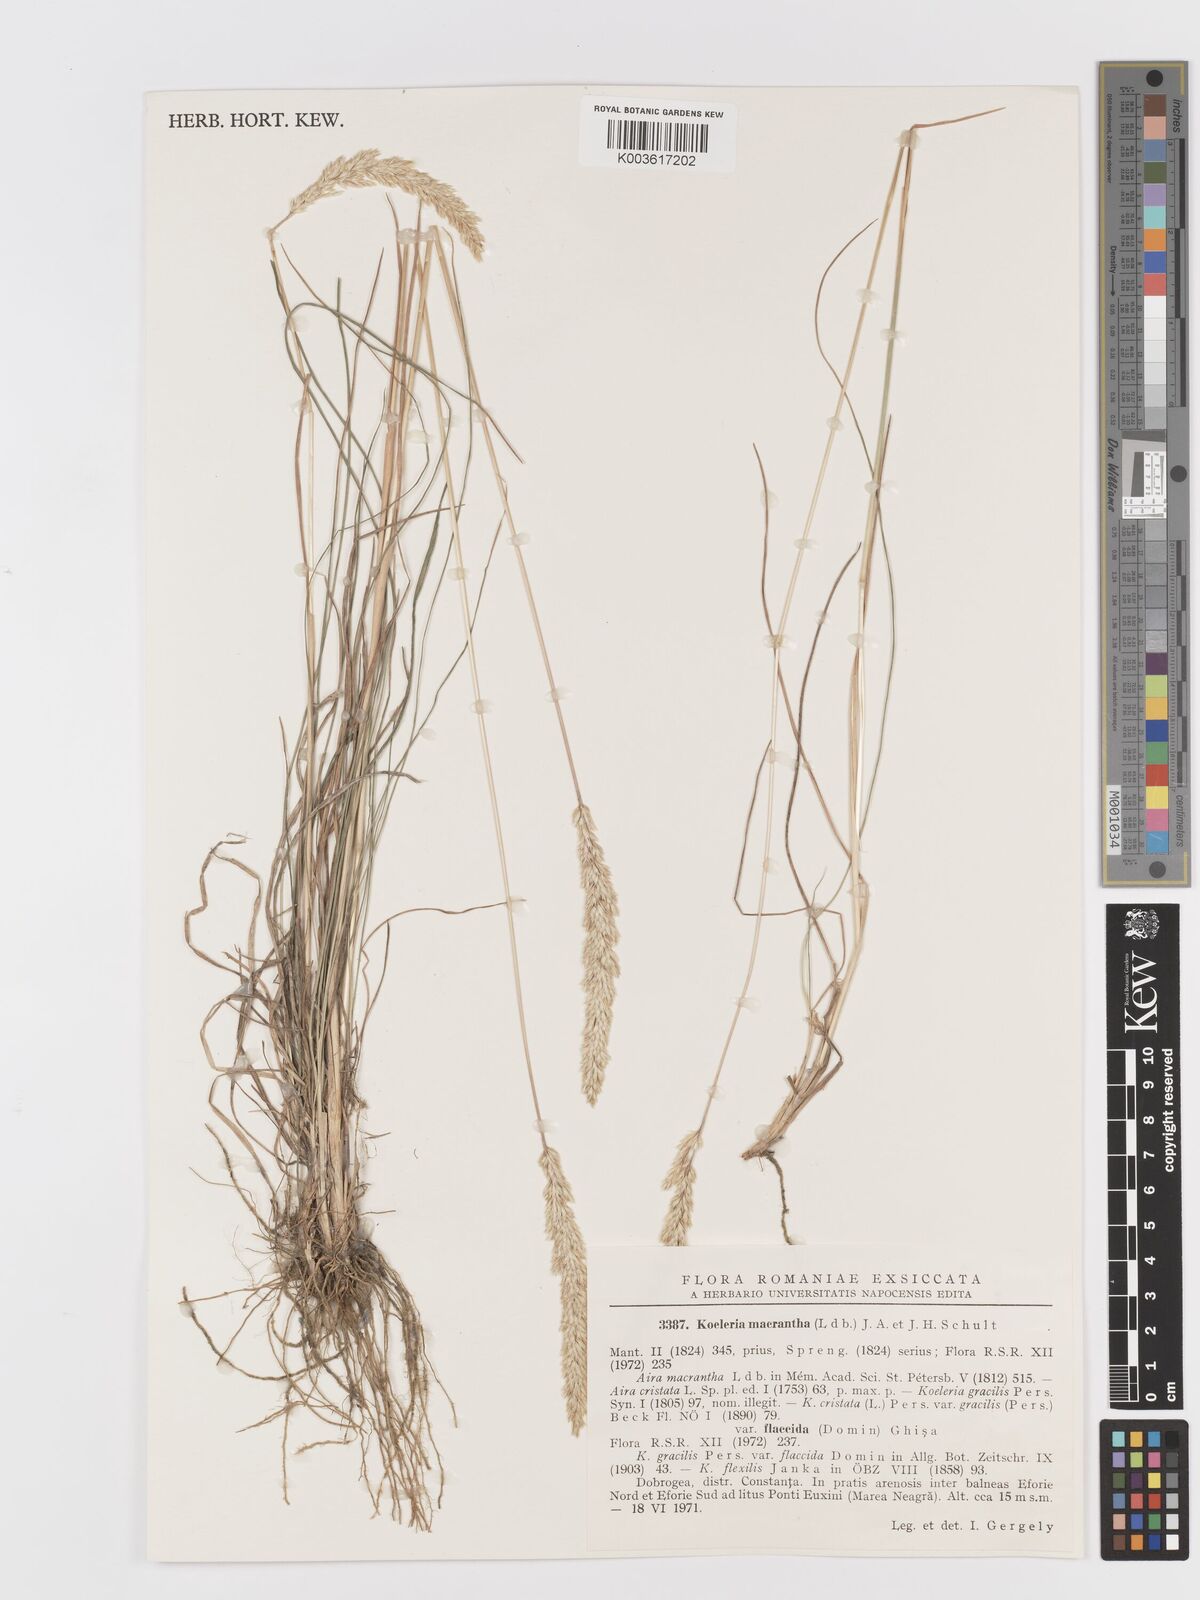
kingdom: Plantae
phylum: Tracheophyta
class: Liliopsida
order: Poales
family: Poaceae
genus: Koeleria
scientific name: Koeleria macrantha
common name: Crested hair-grass
